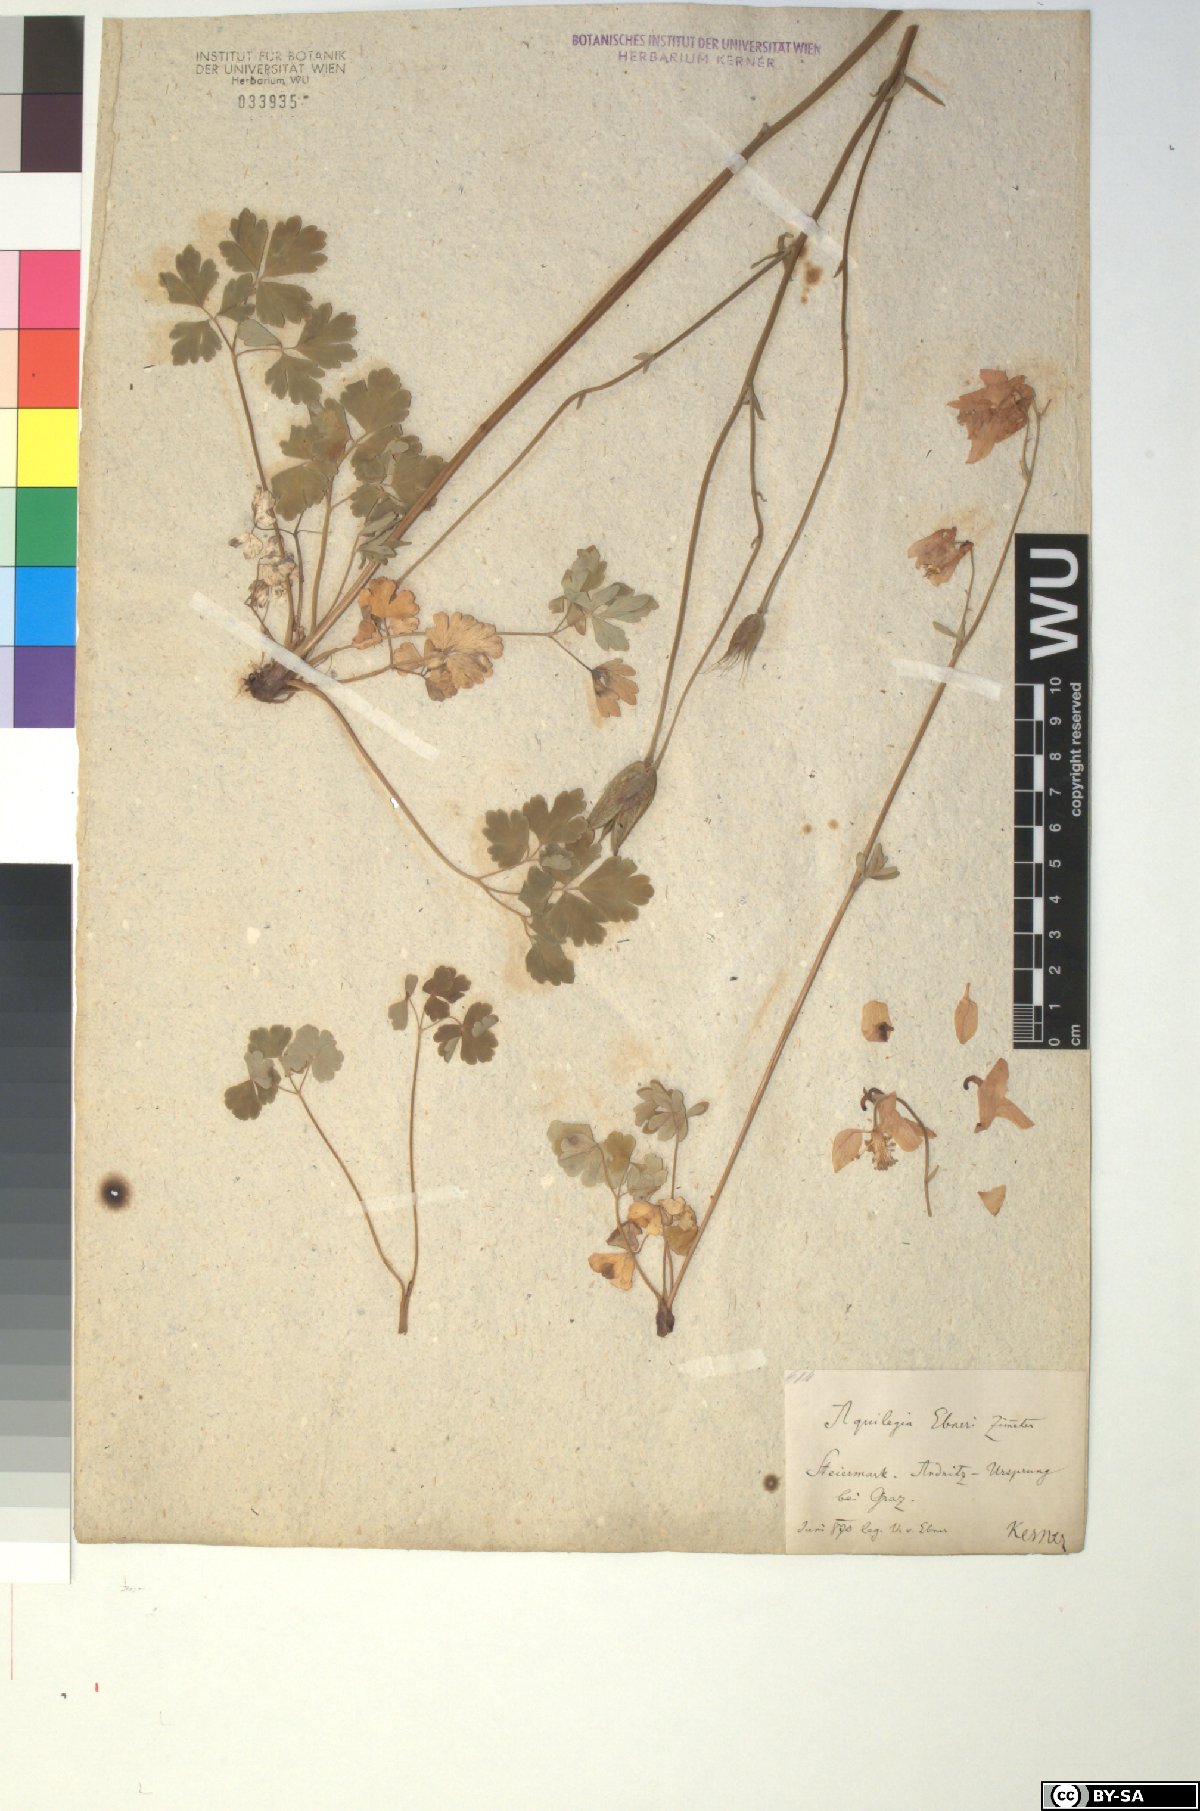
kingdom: Plantae
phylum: Tracheophyta
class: Magnoliopsida
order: Ranunculales
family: Ranunculaceae
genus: Aquilegia
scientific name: Aquilegia vulgaris
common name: Columbine
